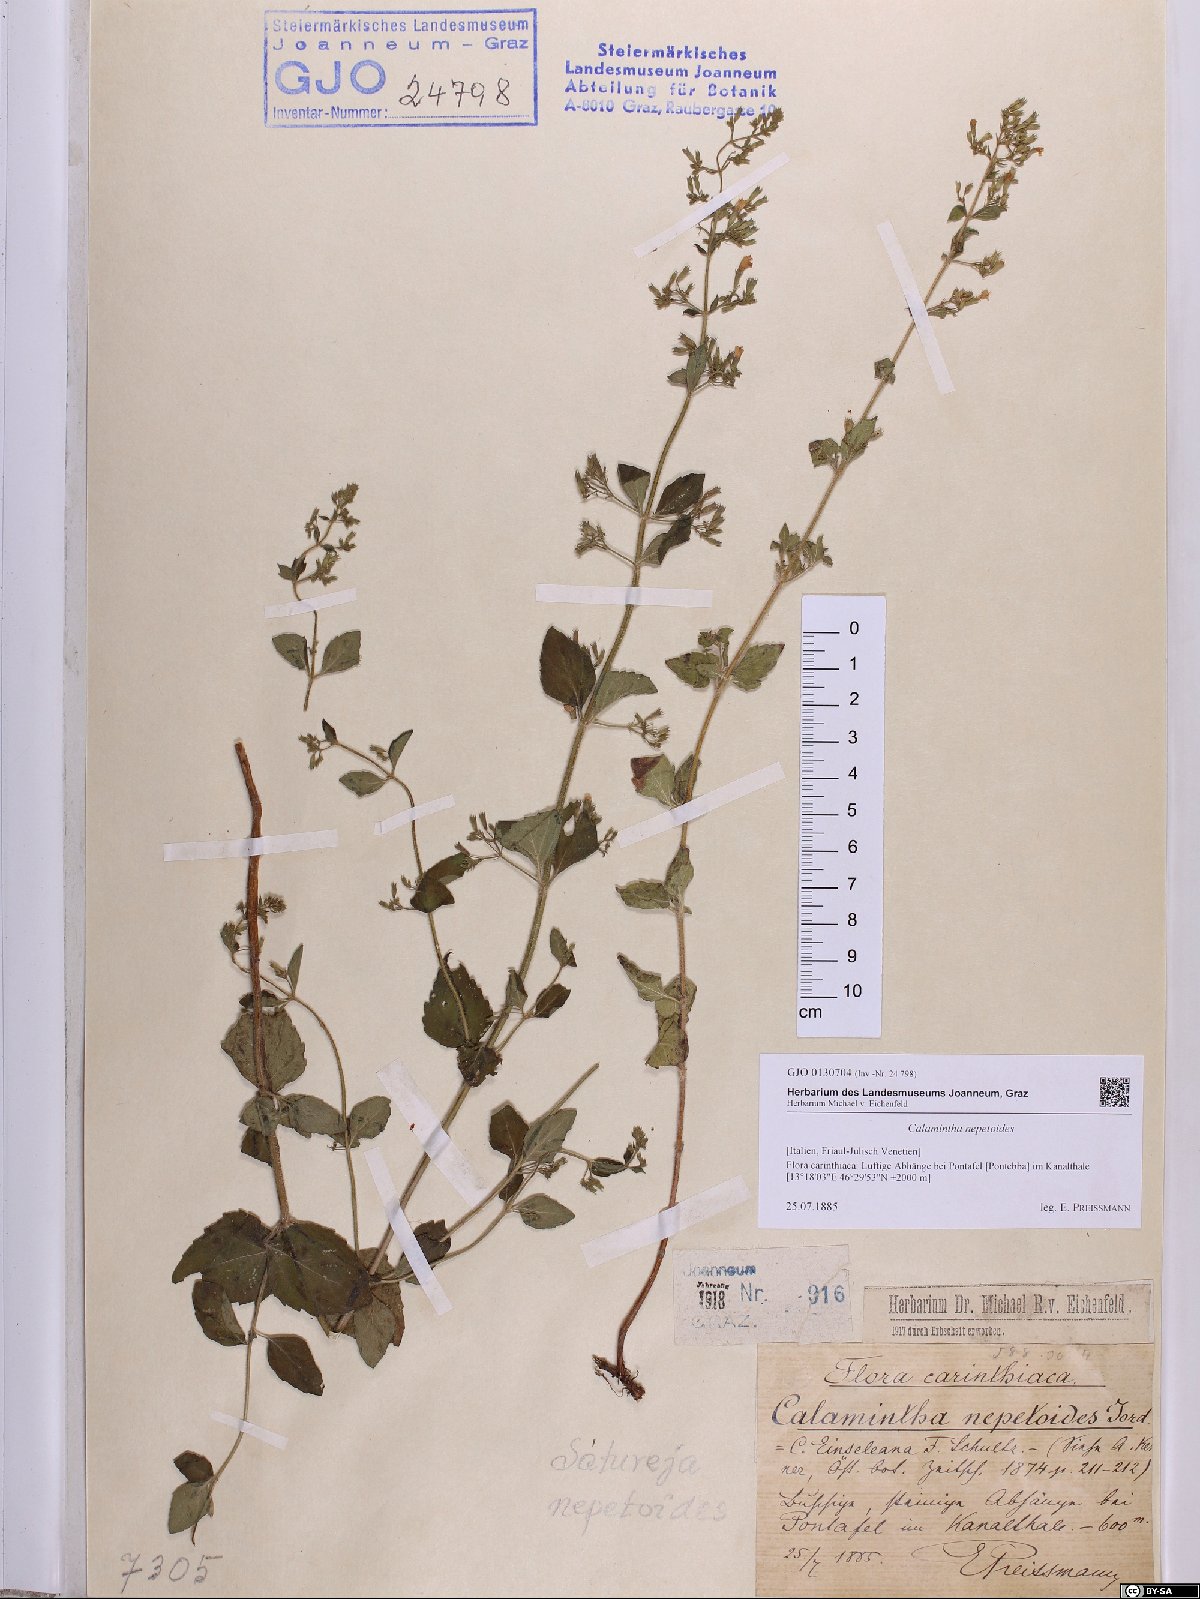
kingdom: Plantae
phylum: Tracheophyta
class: Magnoliopsida
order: Lamiales
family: Lamiaceae
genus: Clinopodium
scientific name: Clinopodium nepeta
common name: Lesser calamint
